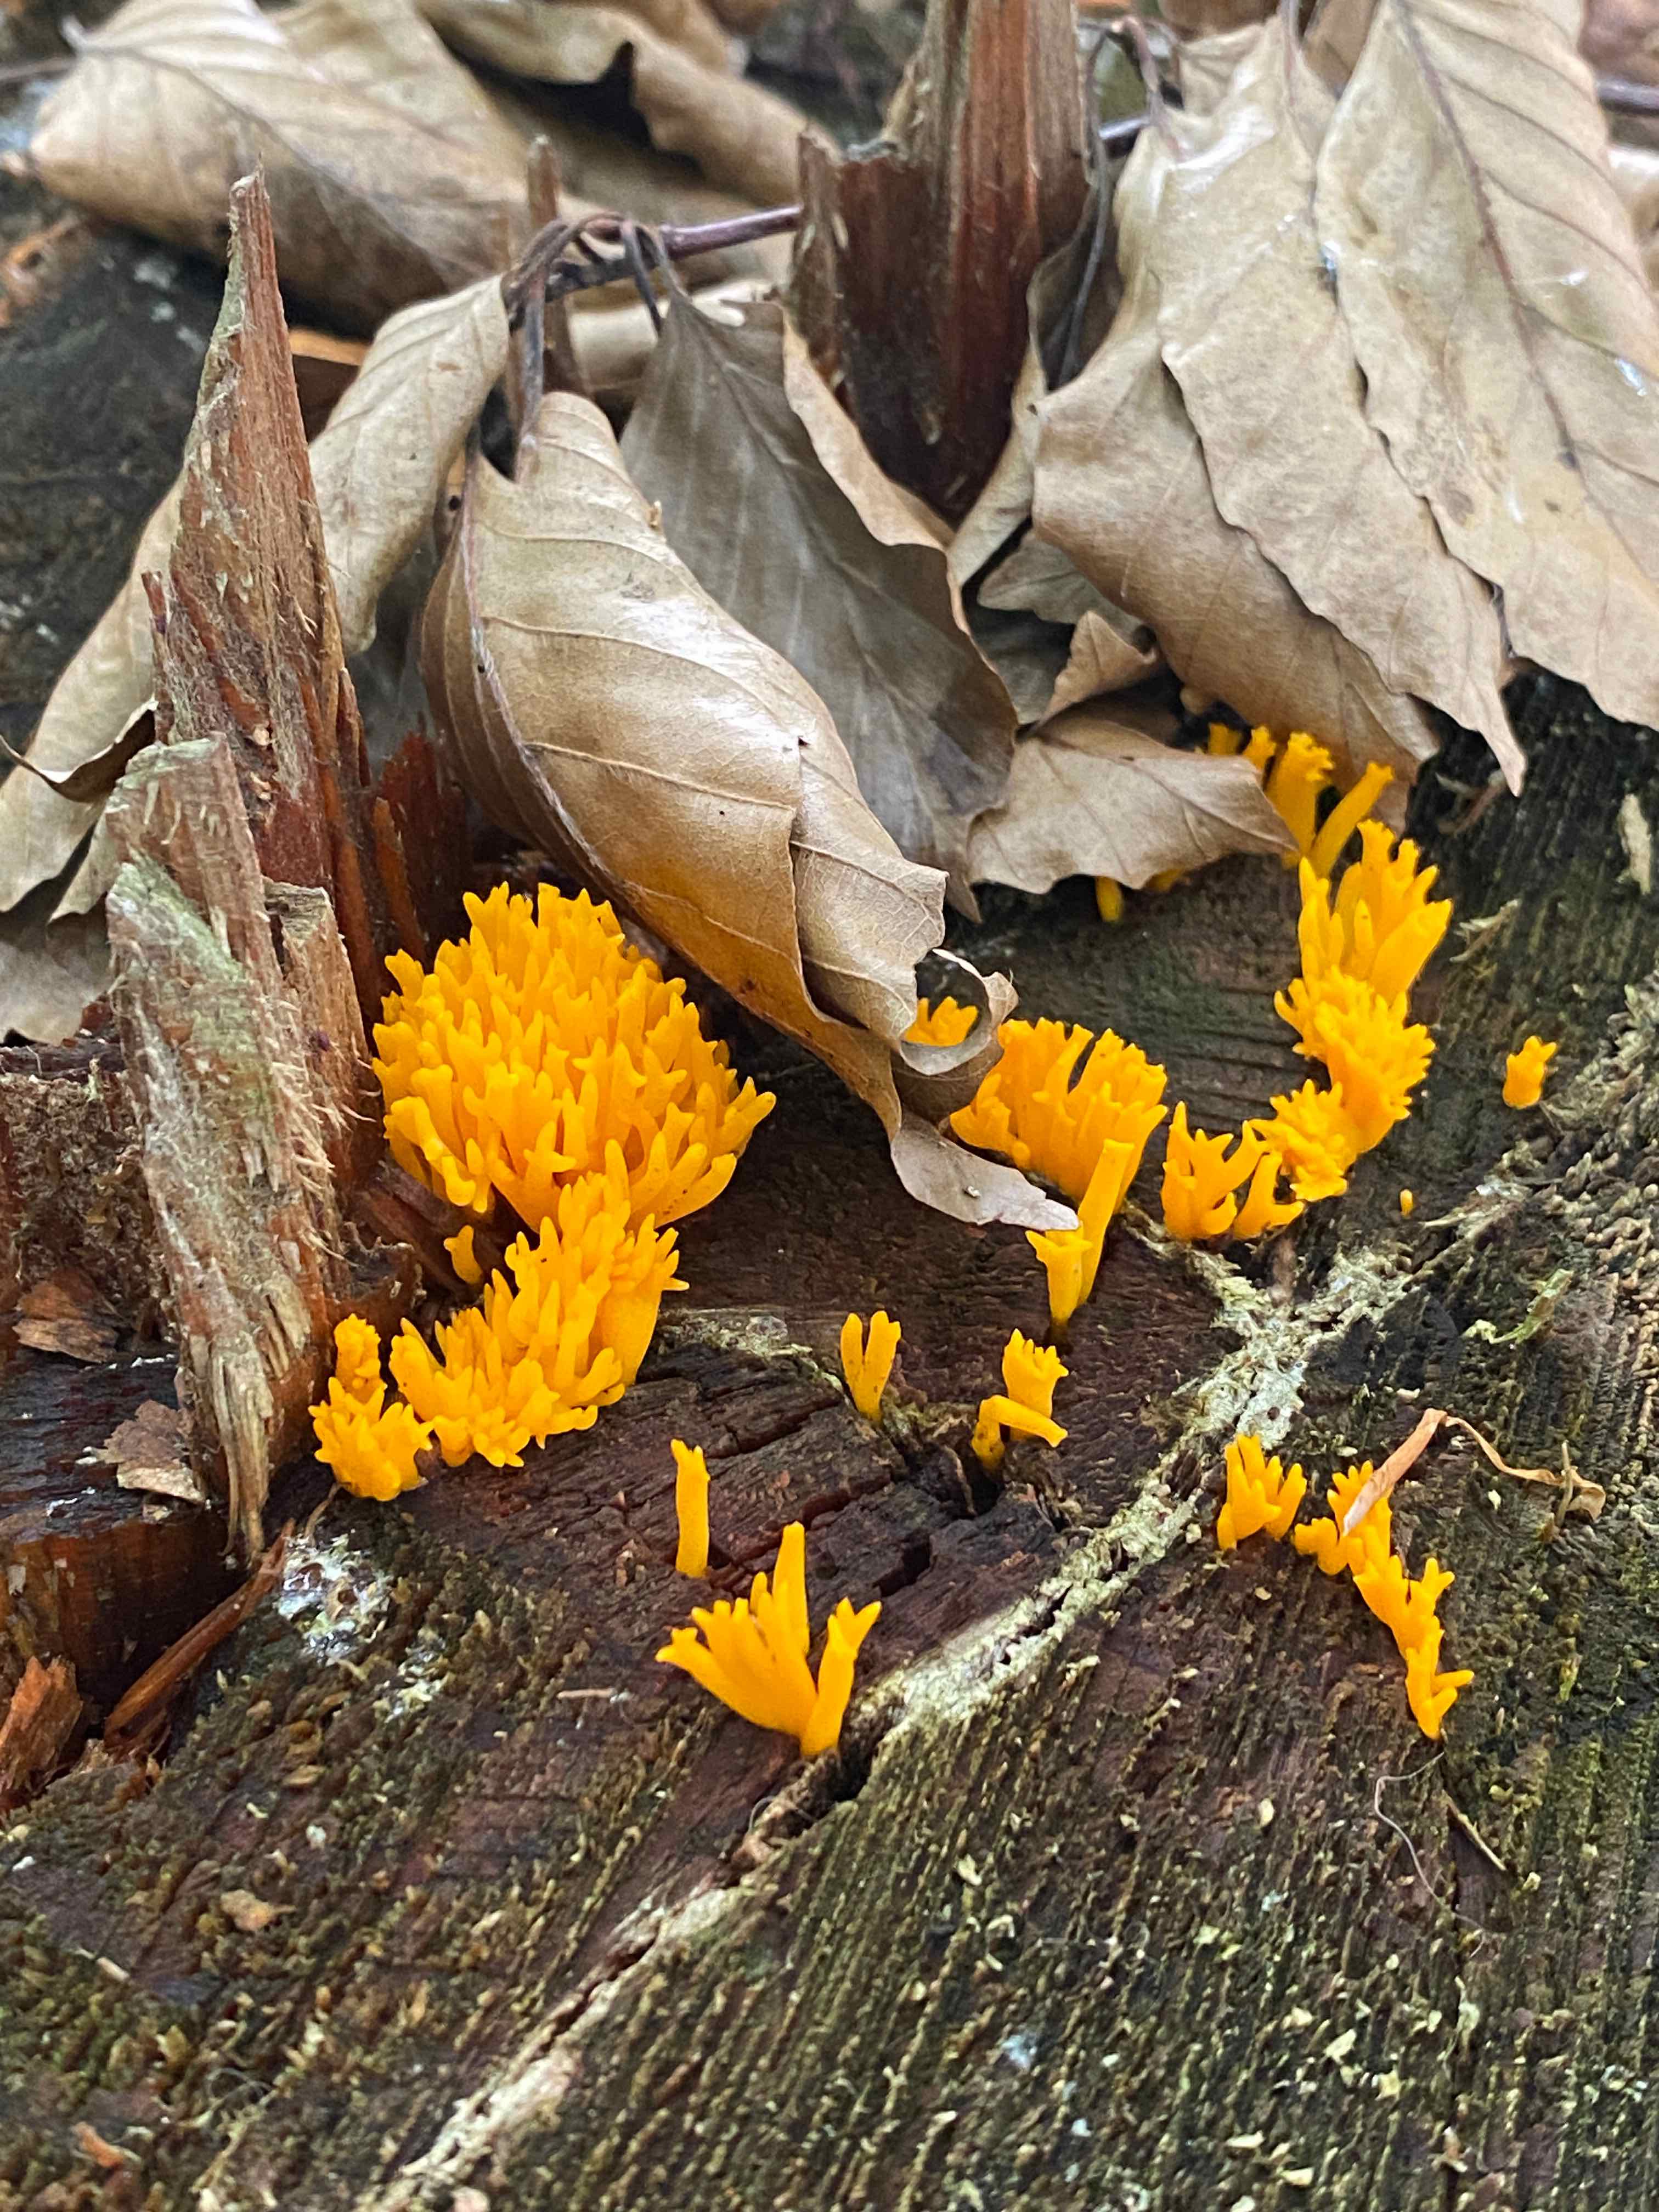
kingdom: Fungi
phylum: Basidiomycota
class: Dacrymycetes
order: Dacrymycetales
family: Dacrymycetaceae
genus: Calocera
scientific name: Calocera viscosa
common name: almindelig guldgaffel
